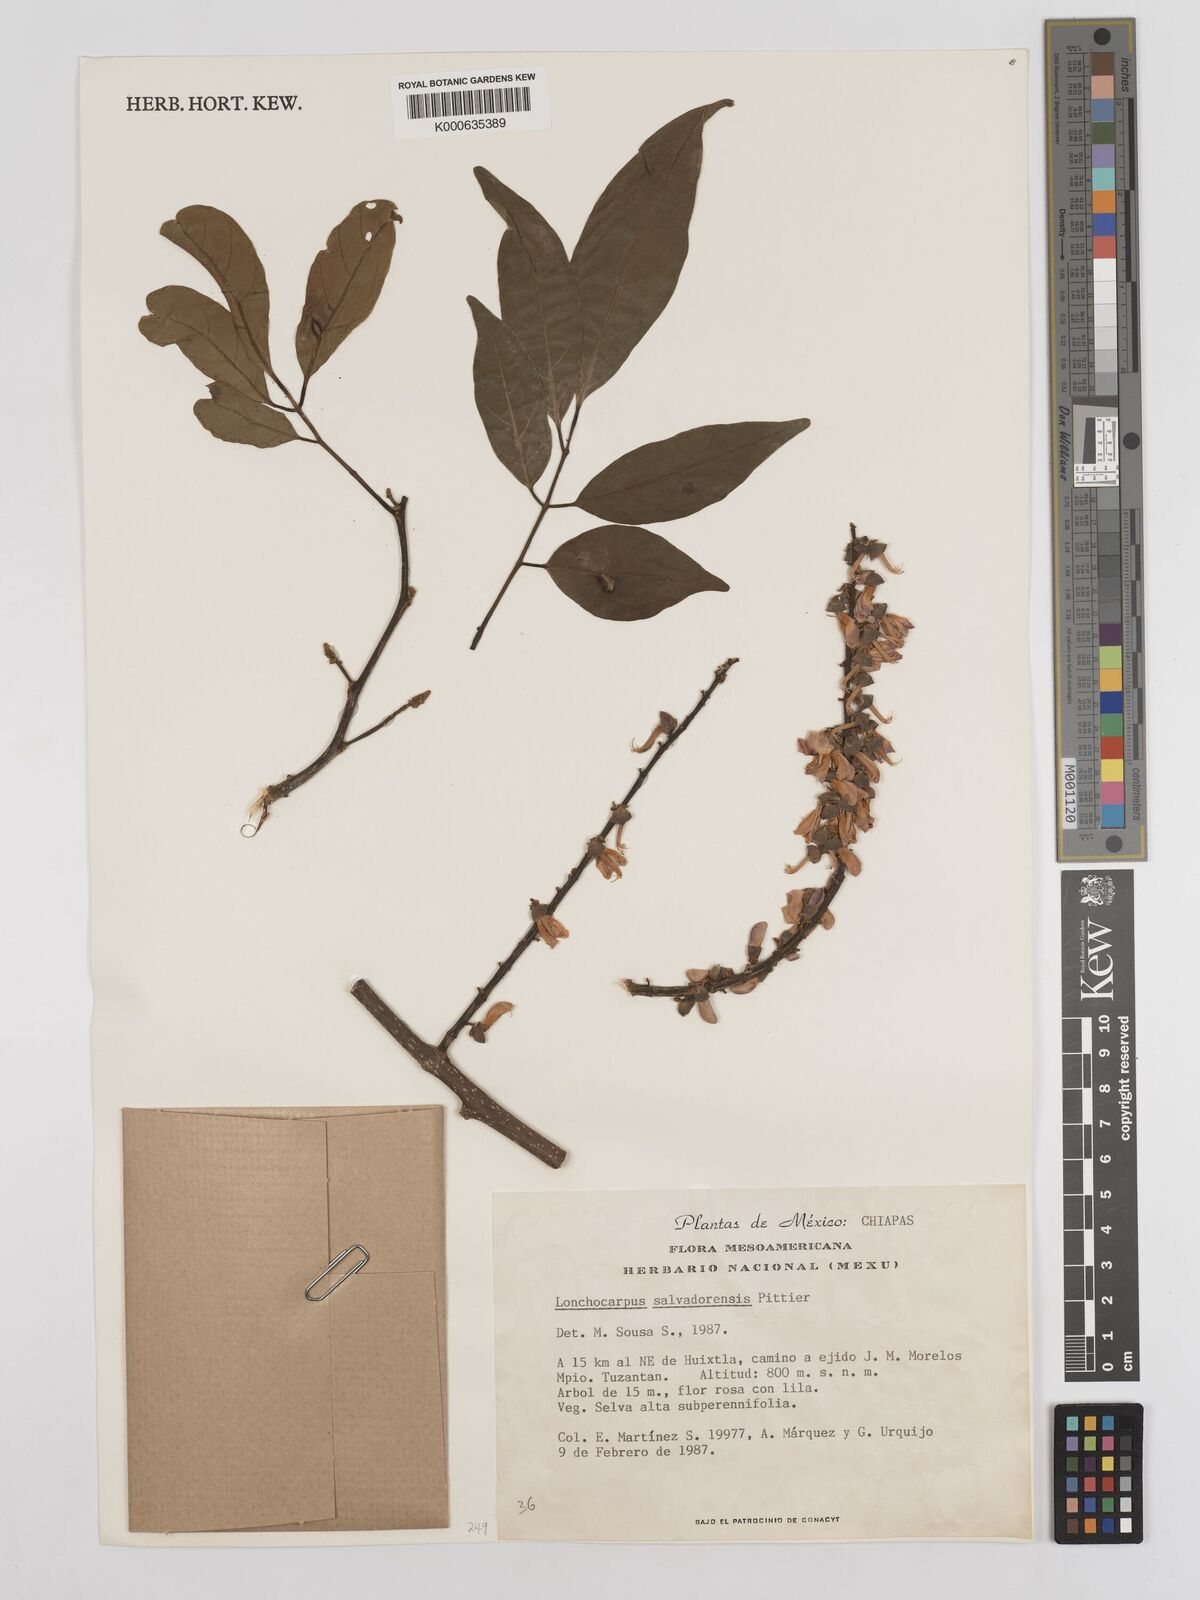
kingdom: Plantae
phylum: Tracheophyta
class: Magnoliopsida
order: Fabales
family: Fabaceae
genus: Lonchocarpus
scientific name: Lonchocarpus salvadorensis
